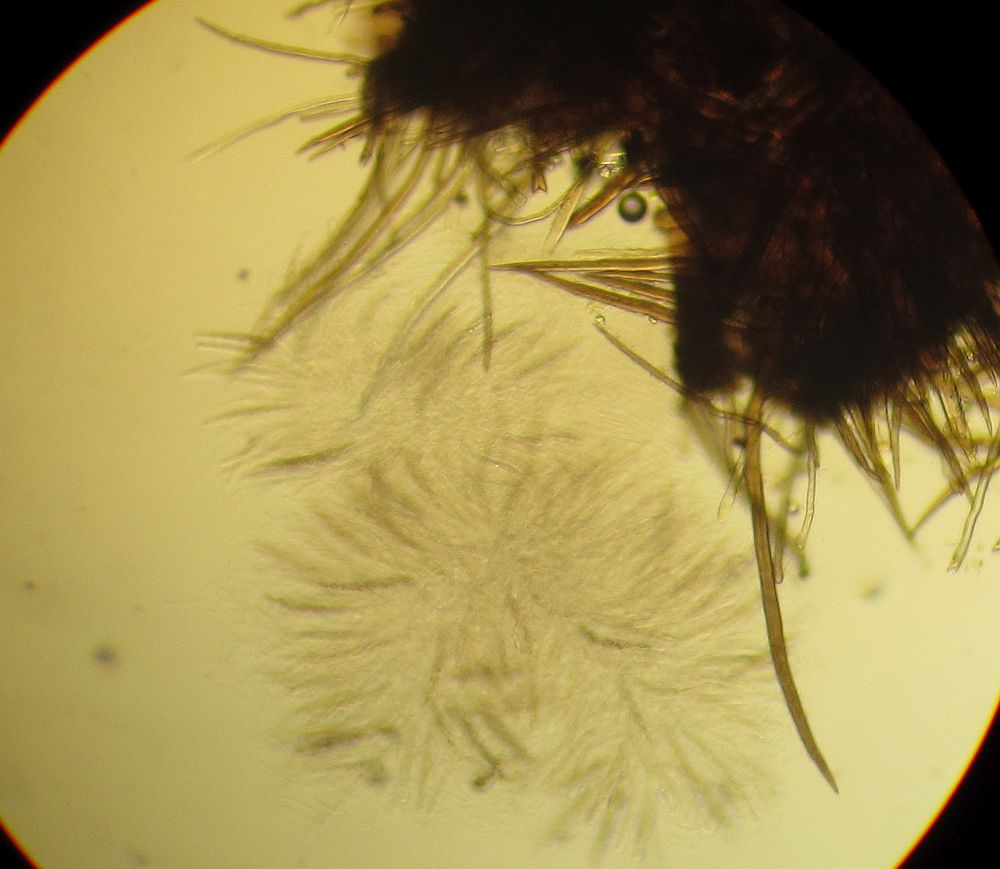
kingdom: Fungi
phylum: Ascomycota
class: Sordariomycetes
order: Sordariales
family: Helminthosphaeriaceae
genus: Echinosphaeria
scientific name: Echinosphaeria canescens
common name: brun børstekerne
